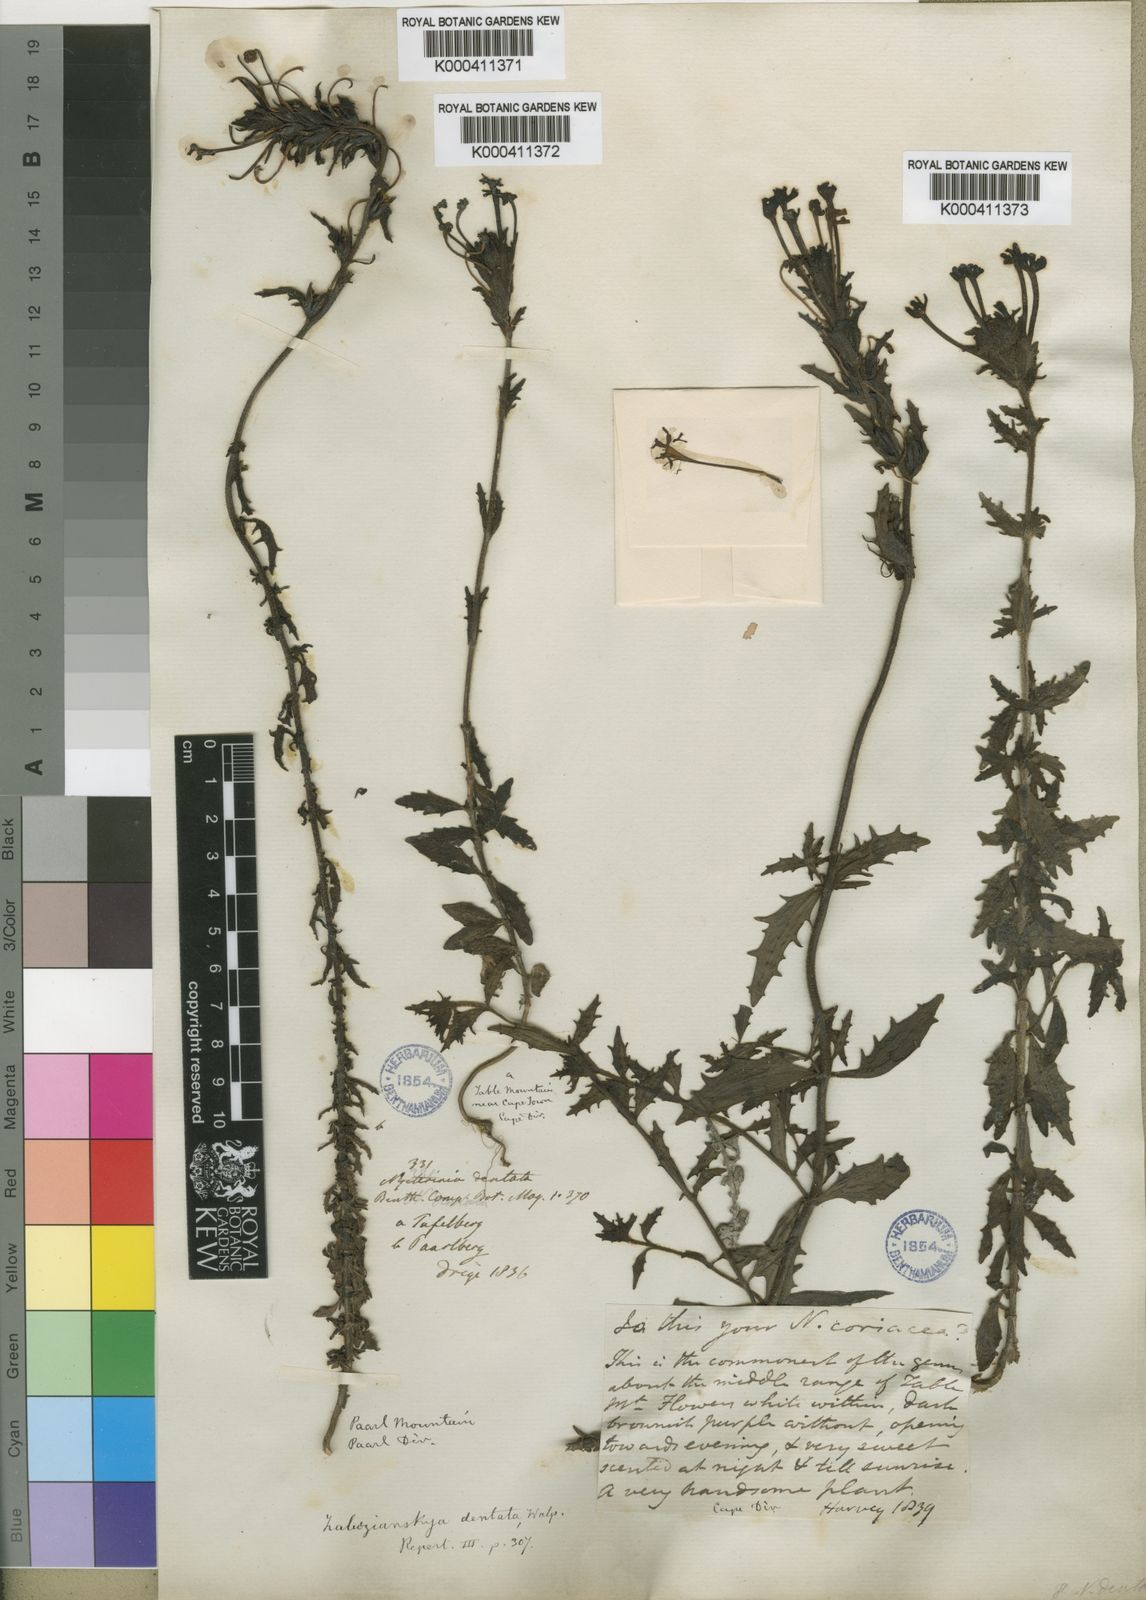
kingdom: Plantae
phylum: Tracheophyta
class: Magnoliopsida
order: Lamiales
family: Scrophulariaceae
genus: Zaluzianskya
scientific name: Zaluzianskya capensis
